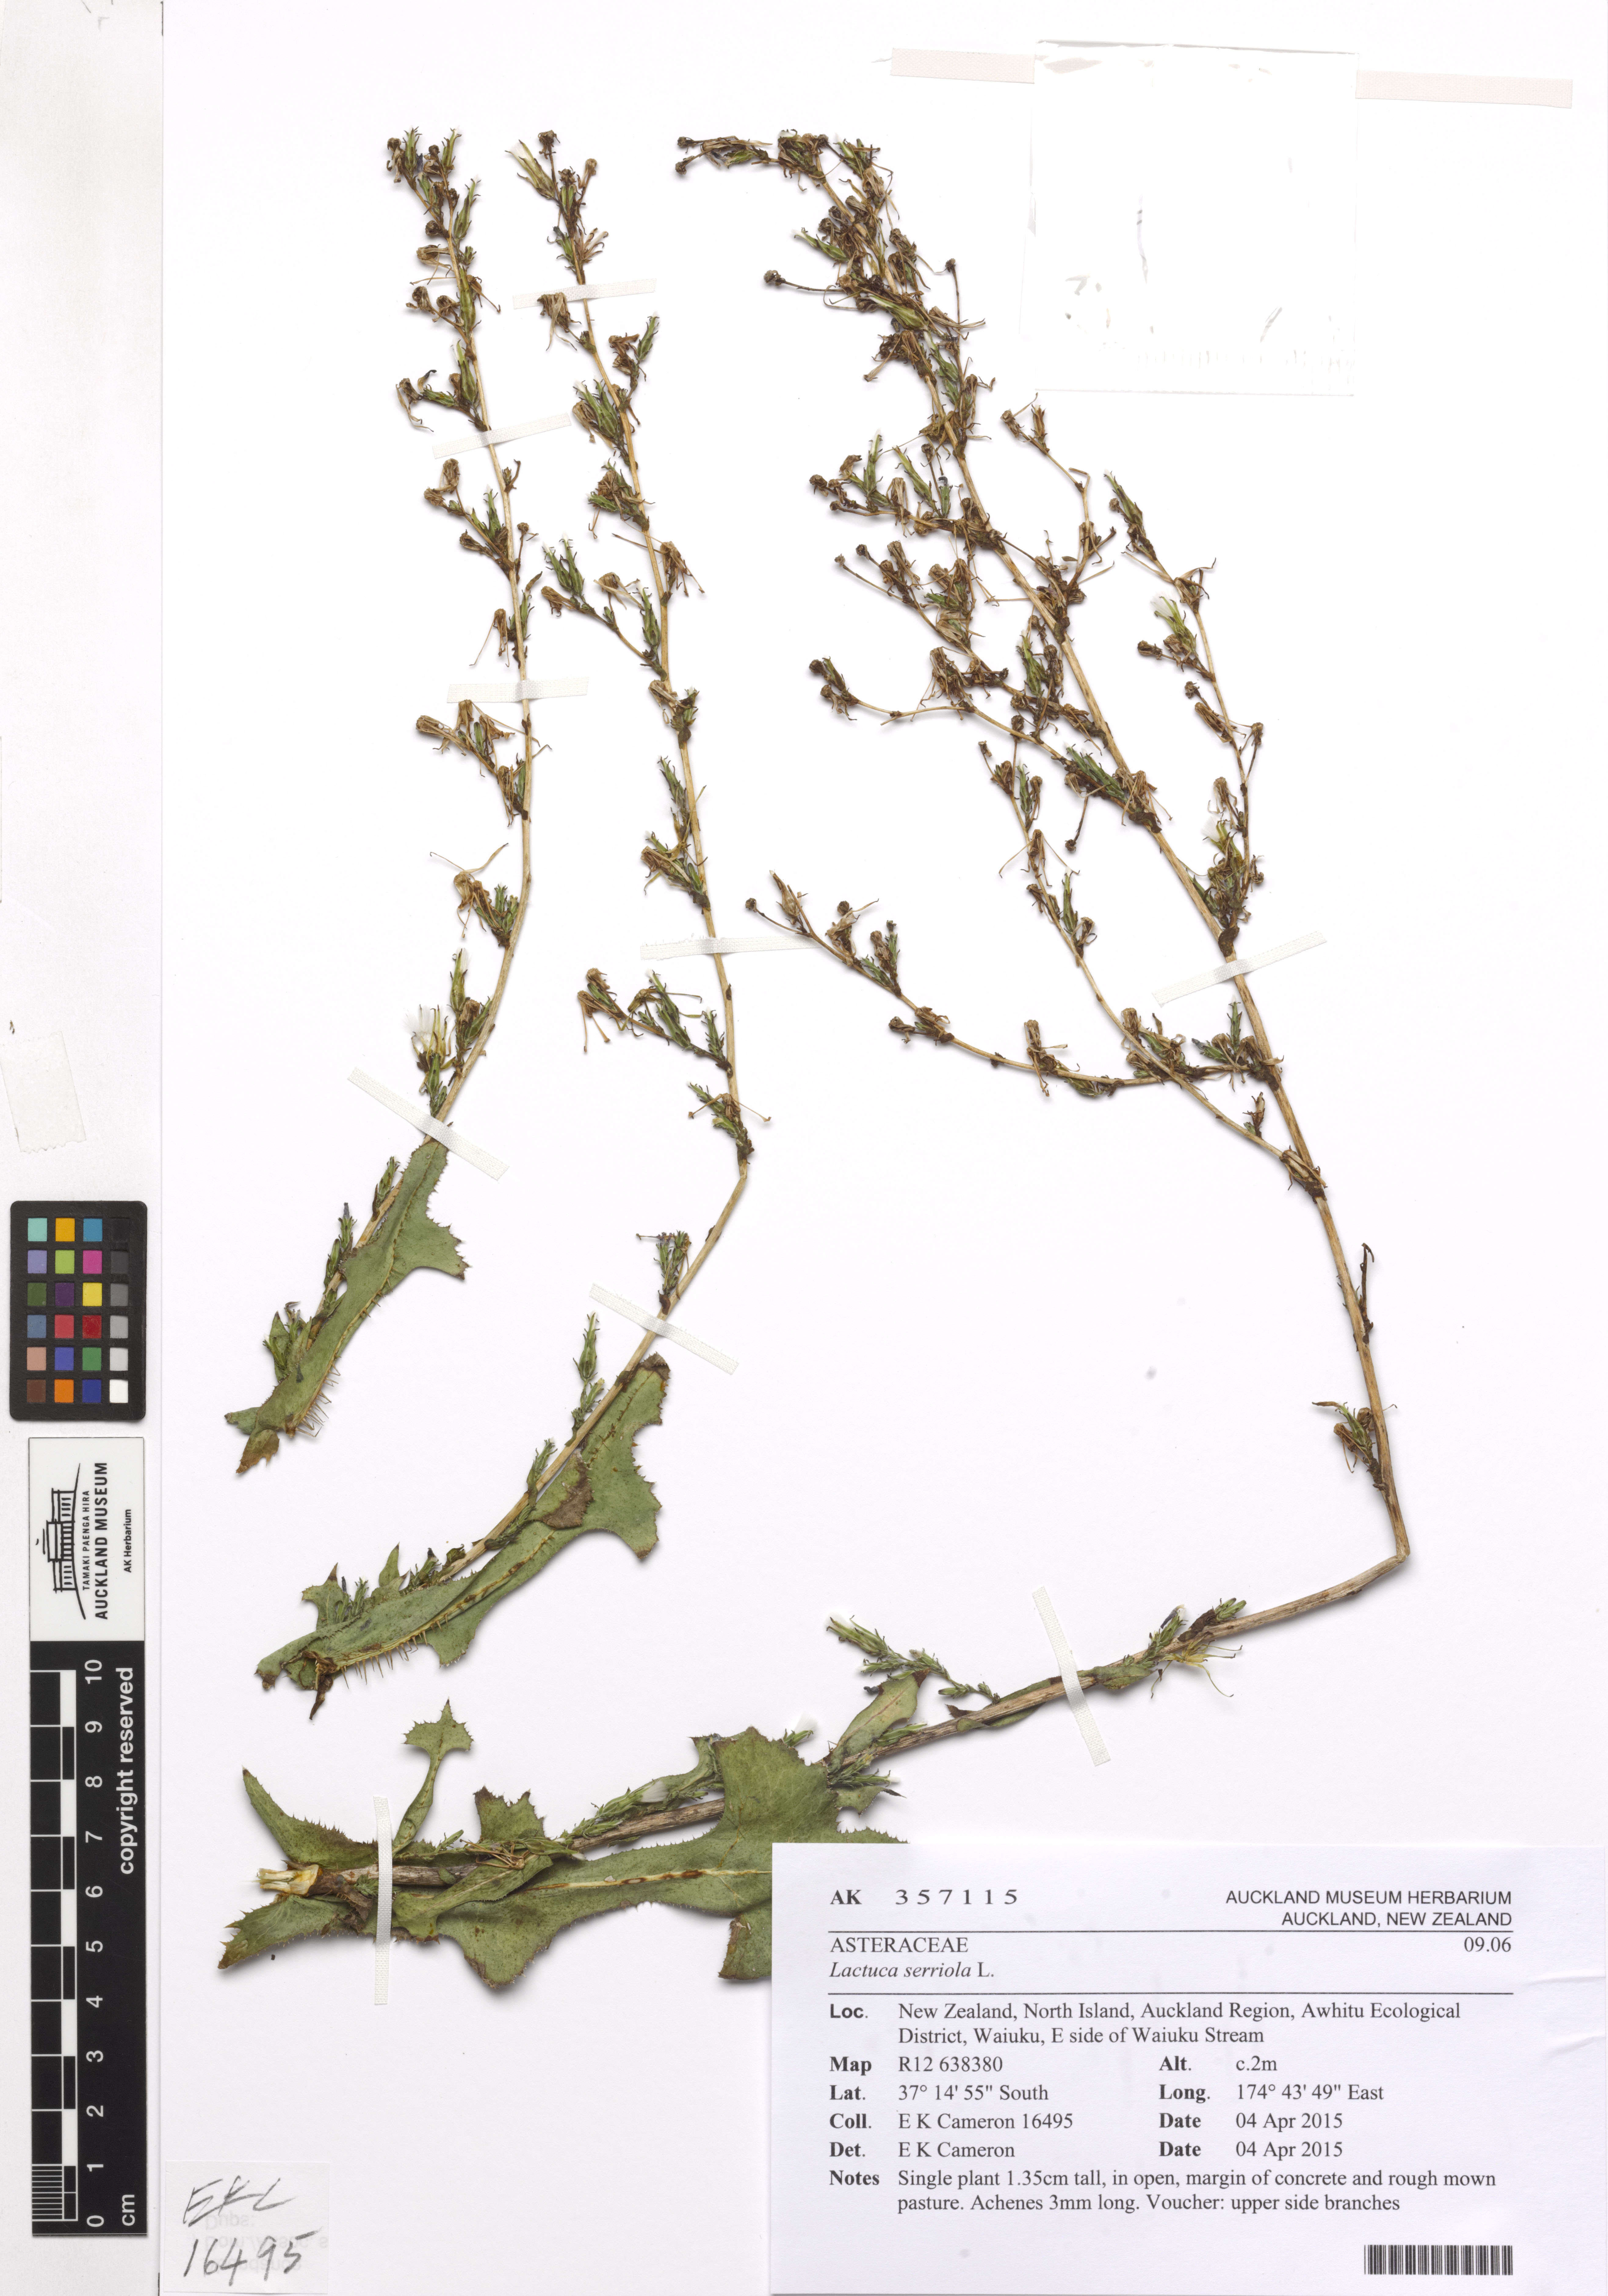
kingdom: Plantae
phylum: Tracheophyta
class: Magnoliopsida
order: Asterales
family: Asteraceae
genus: Lactuca
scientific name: Lactuca serriola
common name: Prickly lettuce
